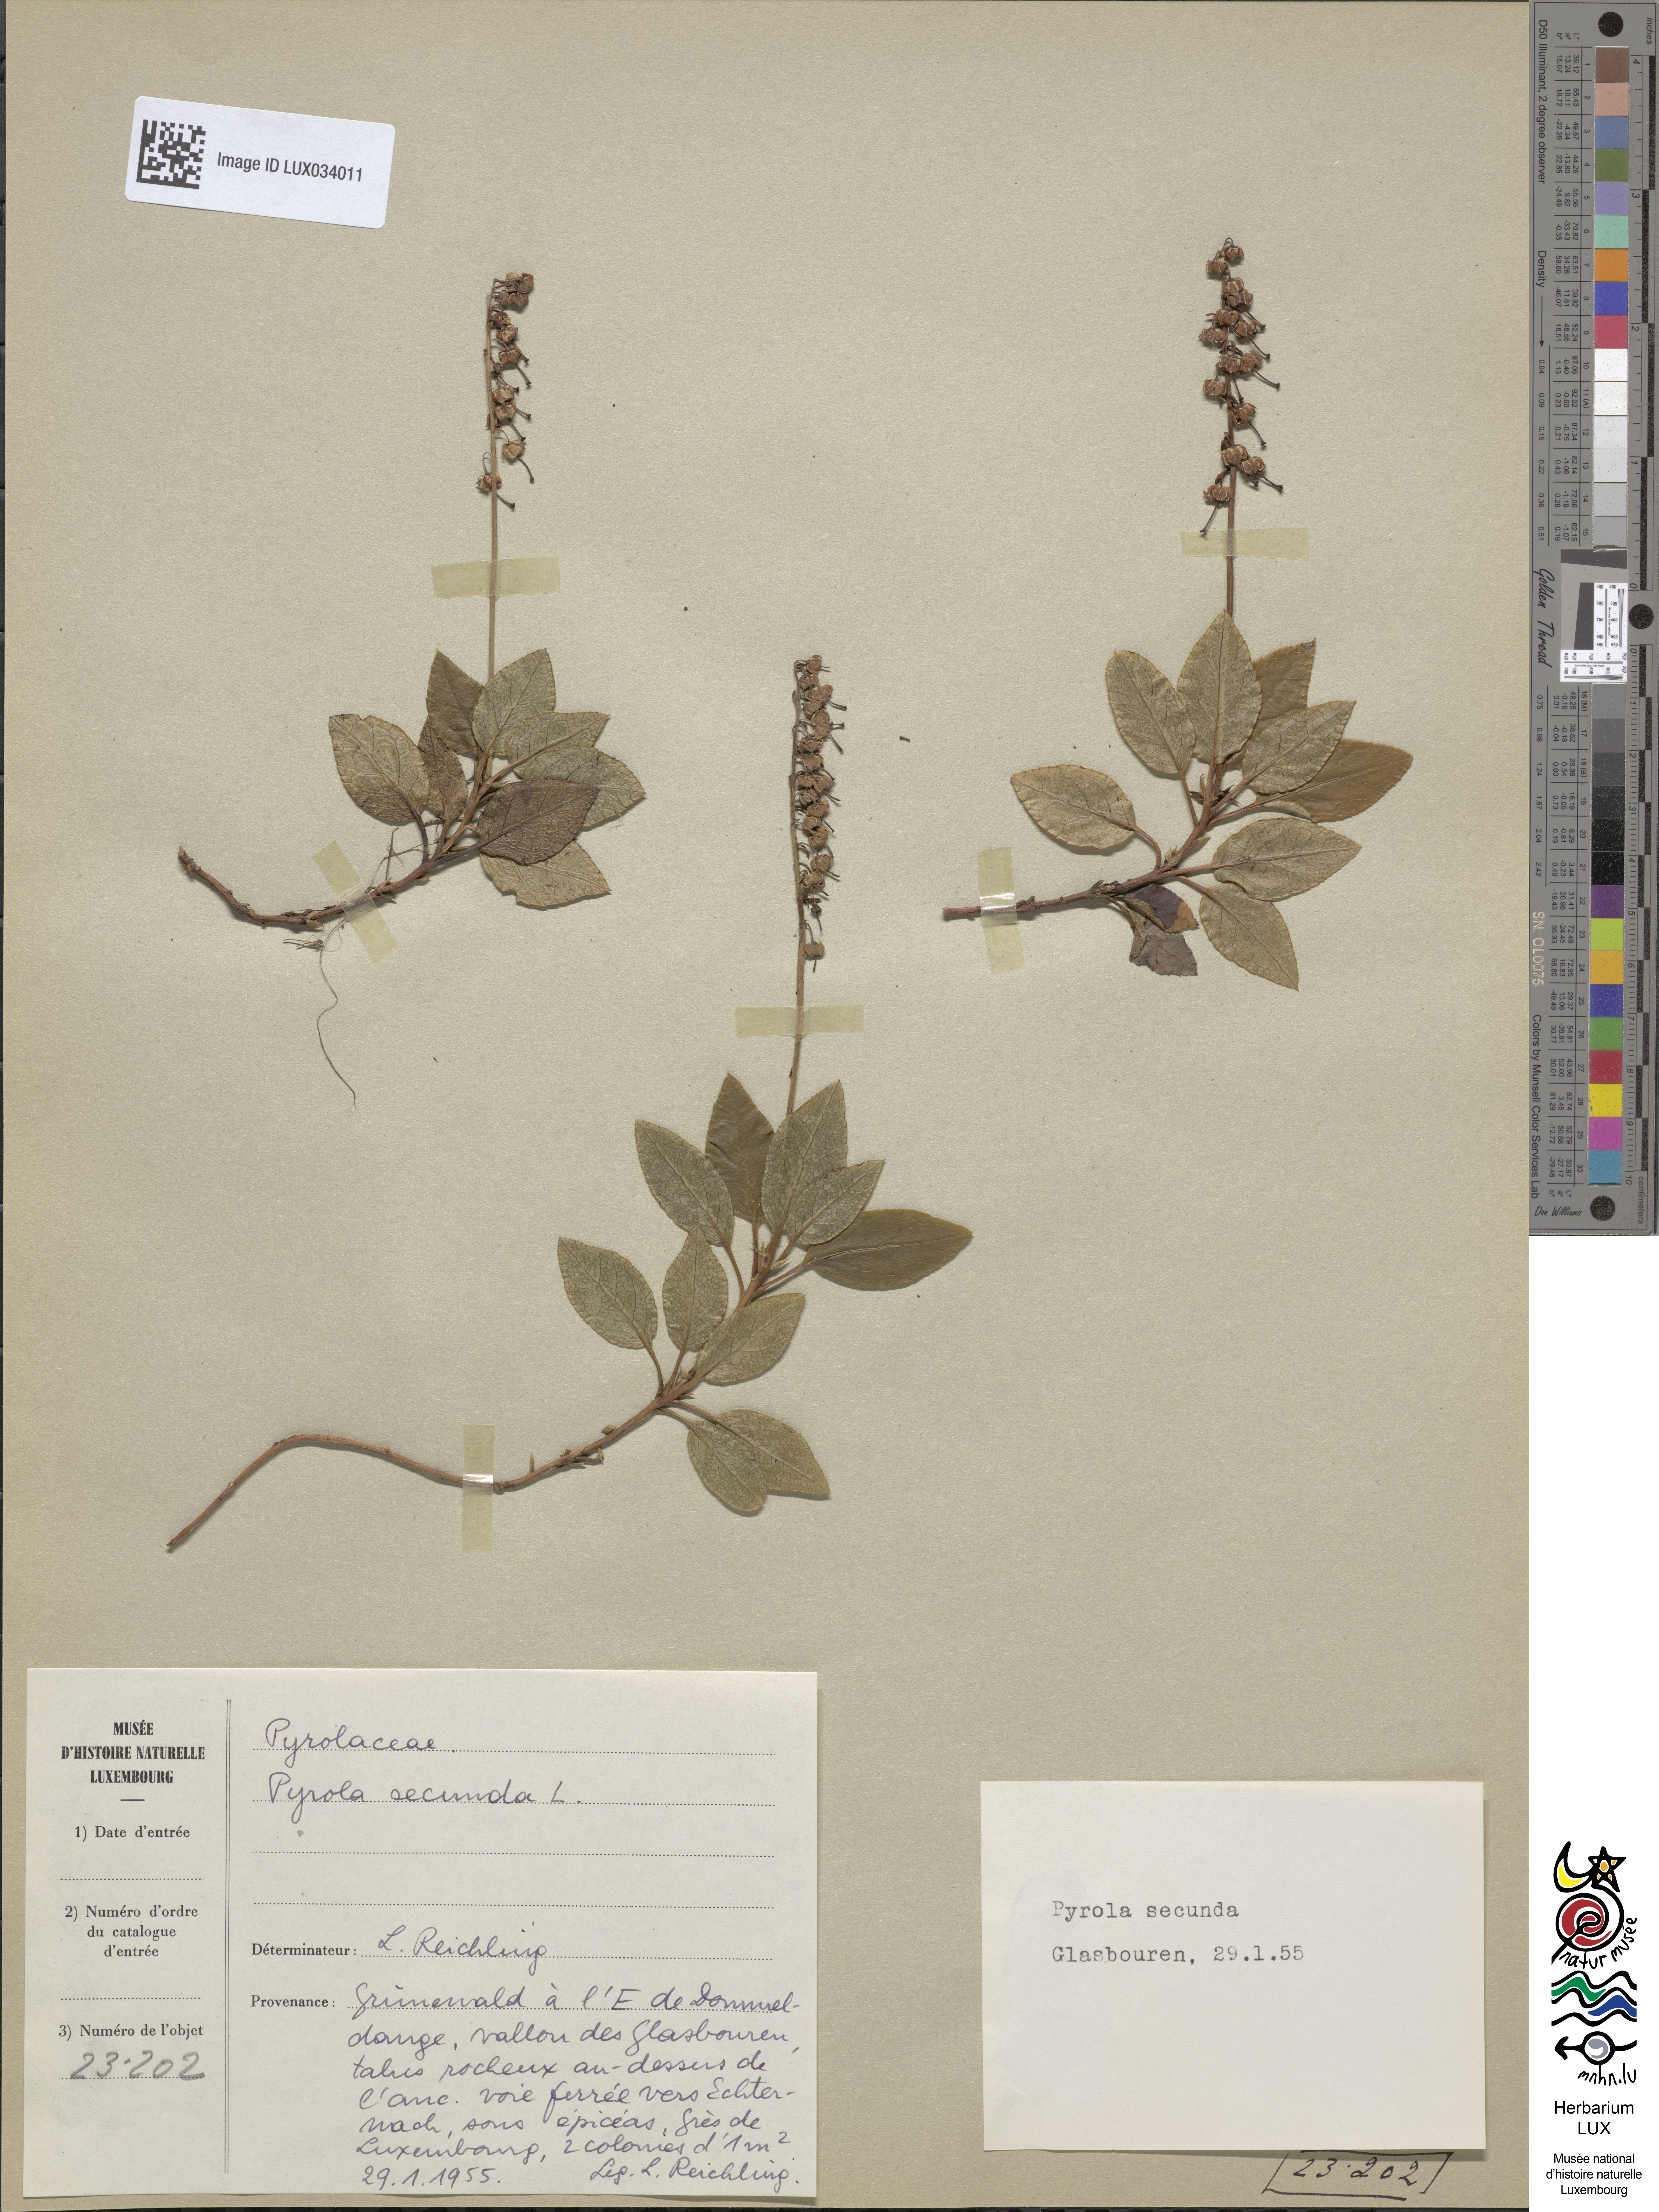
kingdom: Plantae
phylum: Tracheophyta
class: Magnoliopsida
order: Ericales
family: Ericaceae
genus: Orthilia
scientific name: Orthilia secunda
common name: One-sided orthilia
